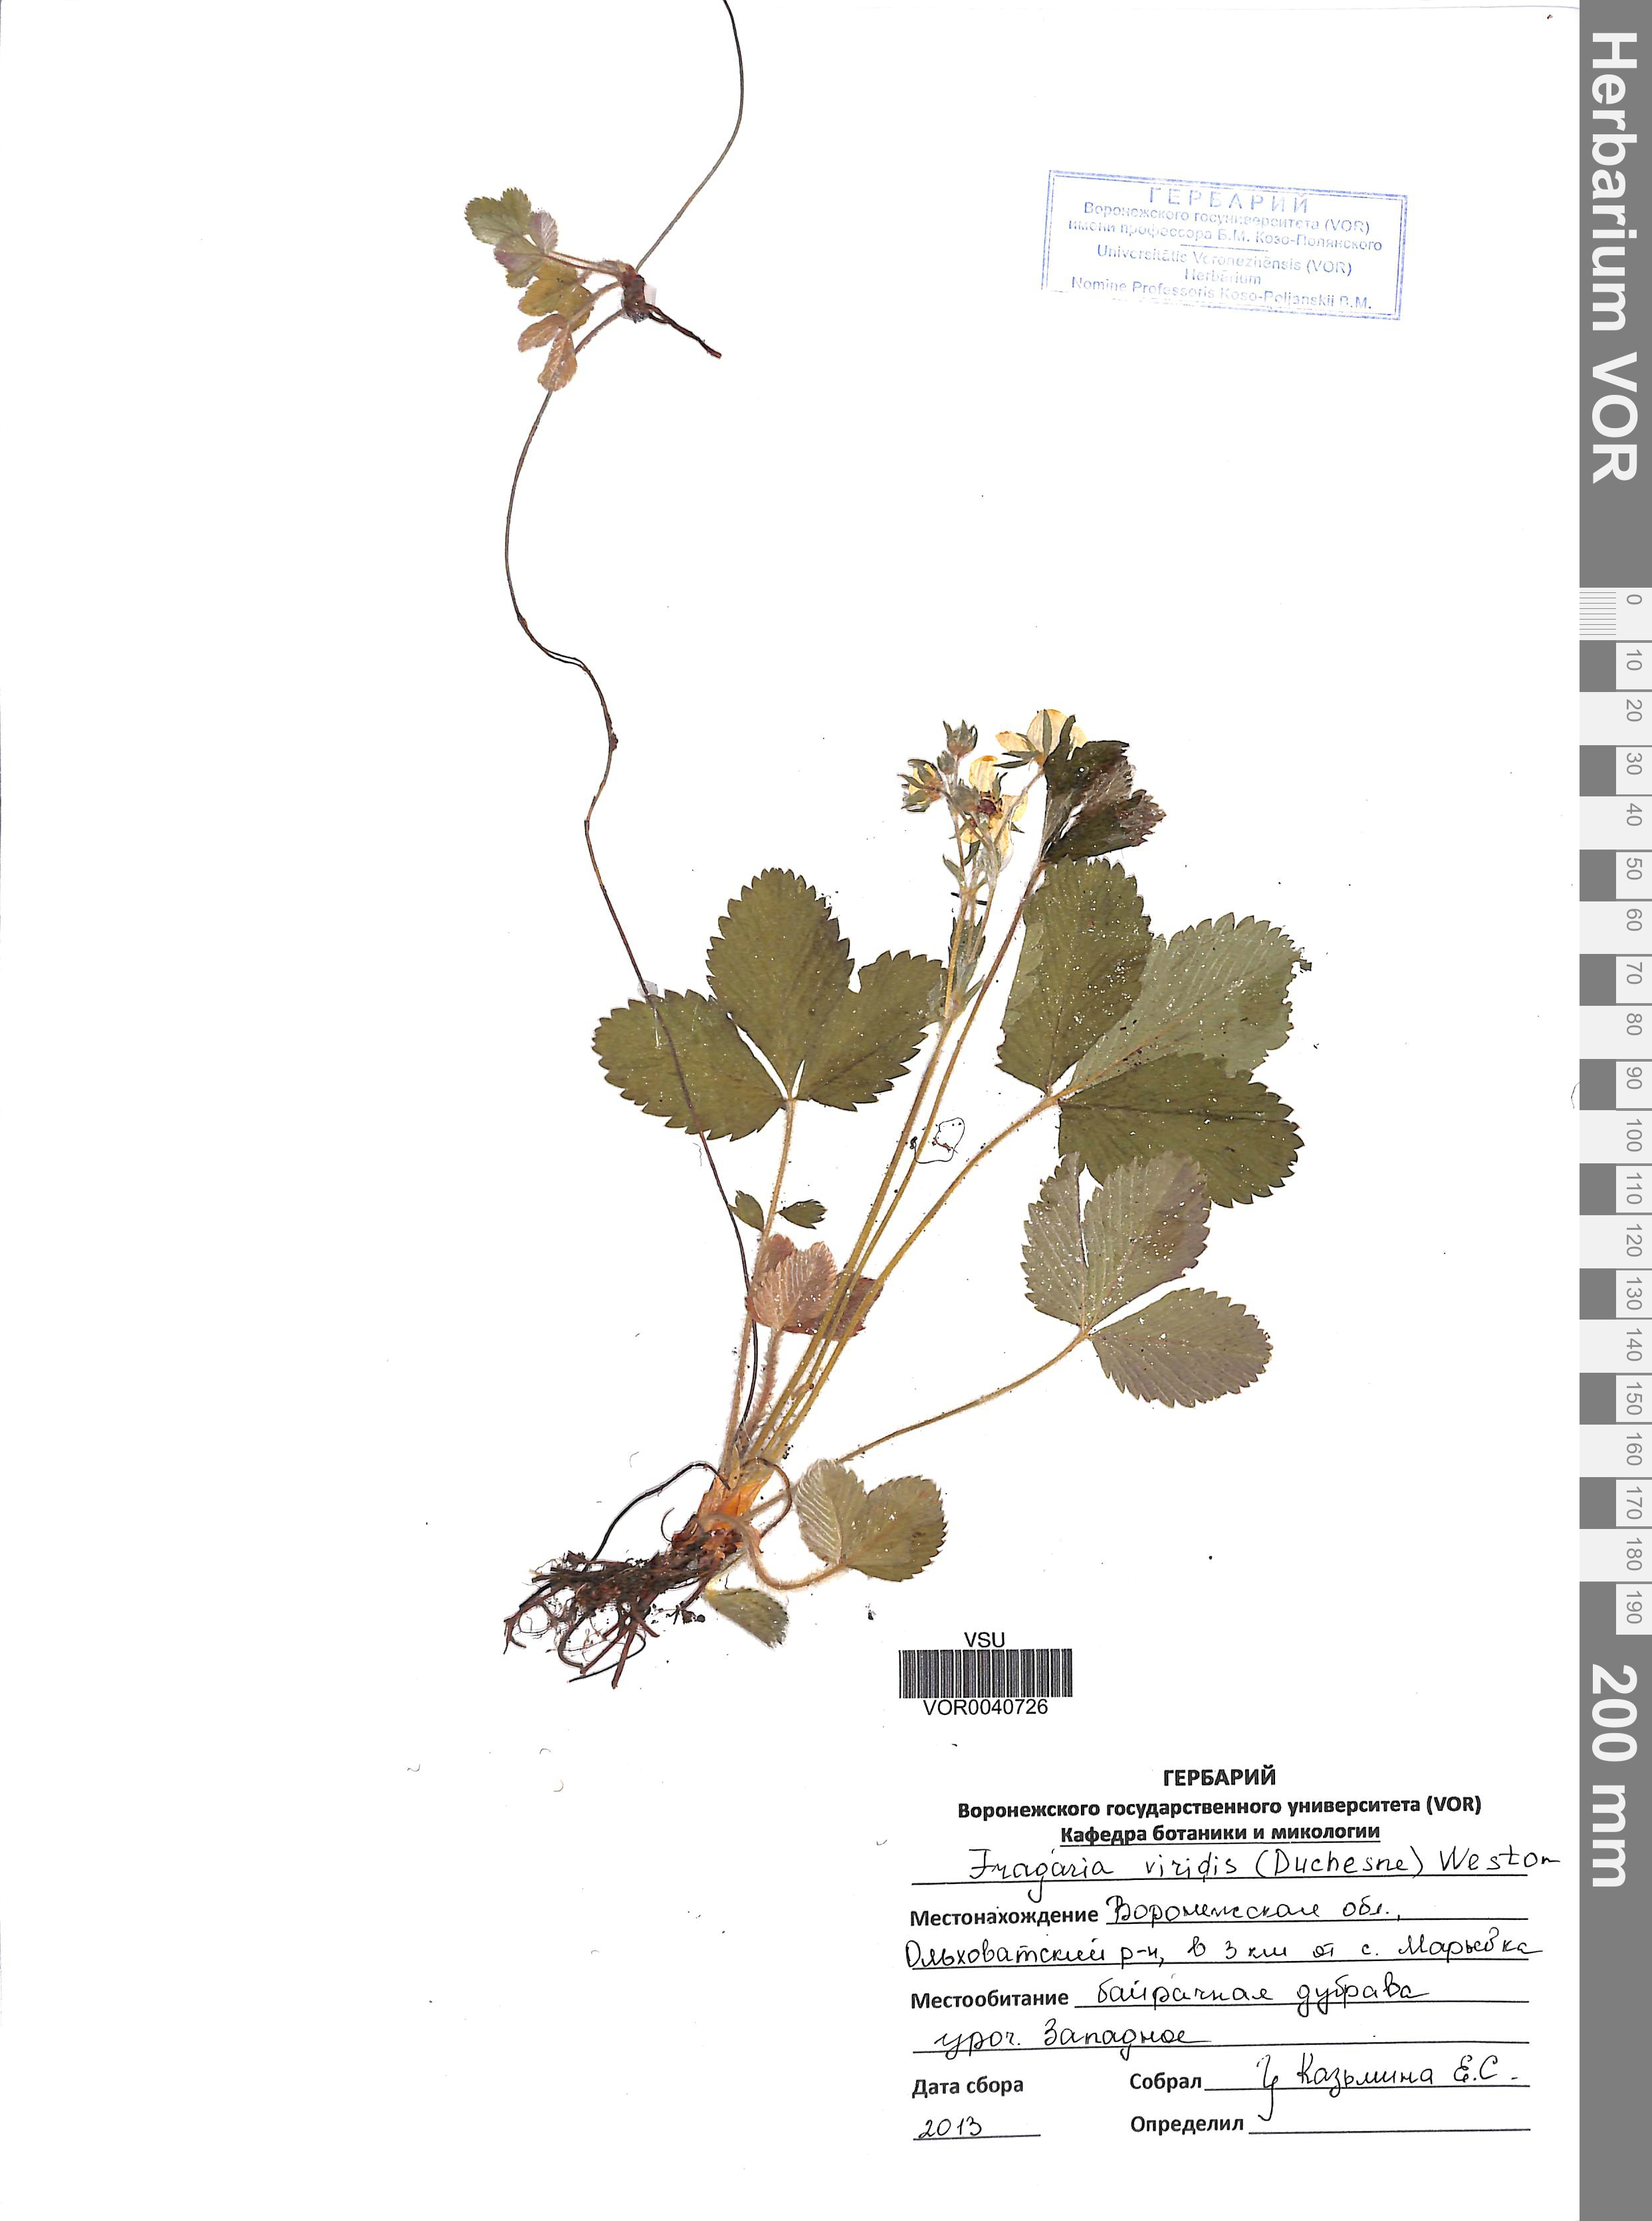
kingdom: Plantae
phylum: Tracheophyta
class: Magnoliopsida
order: Rosales
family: Rosaceae
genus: Fragaria
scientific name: Fragaria viridis
